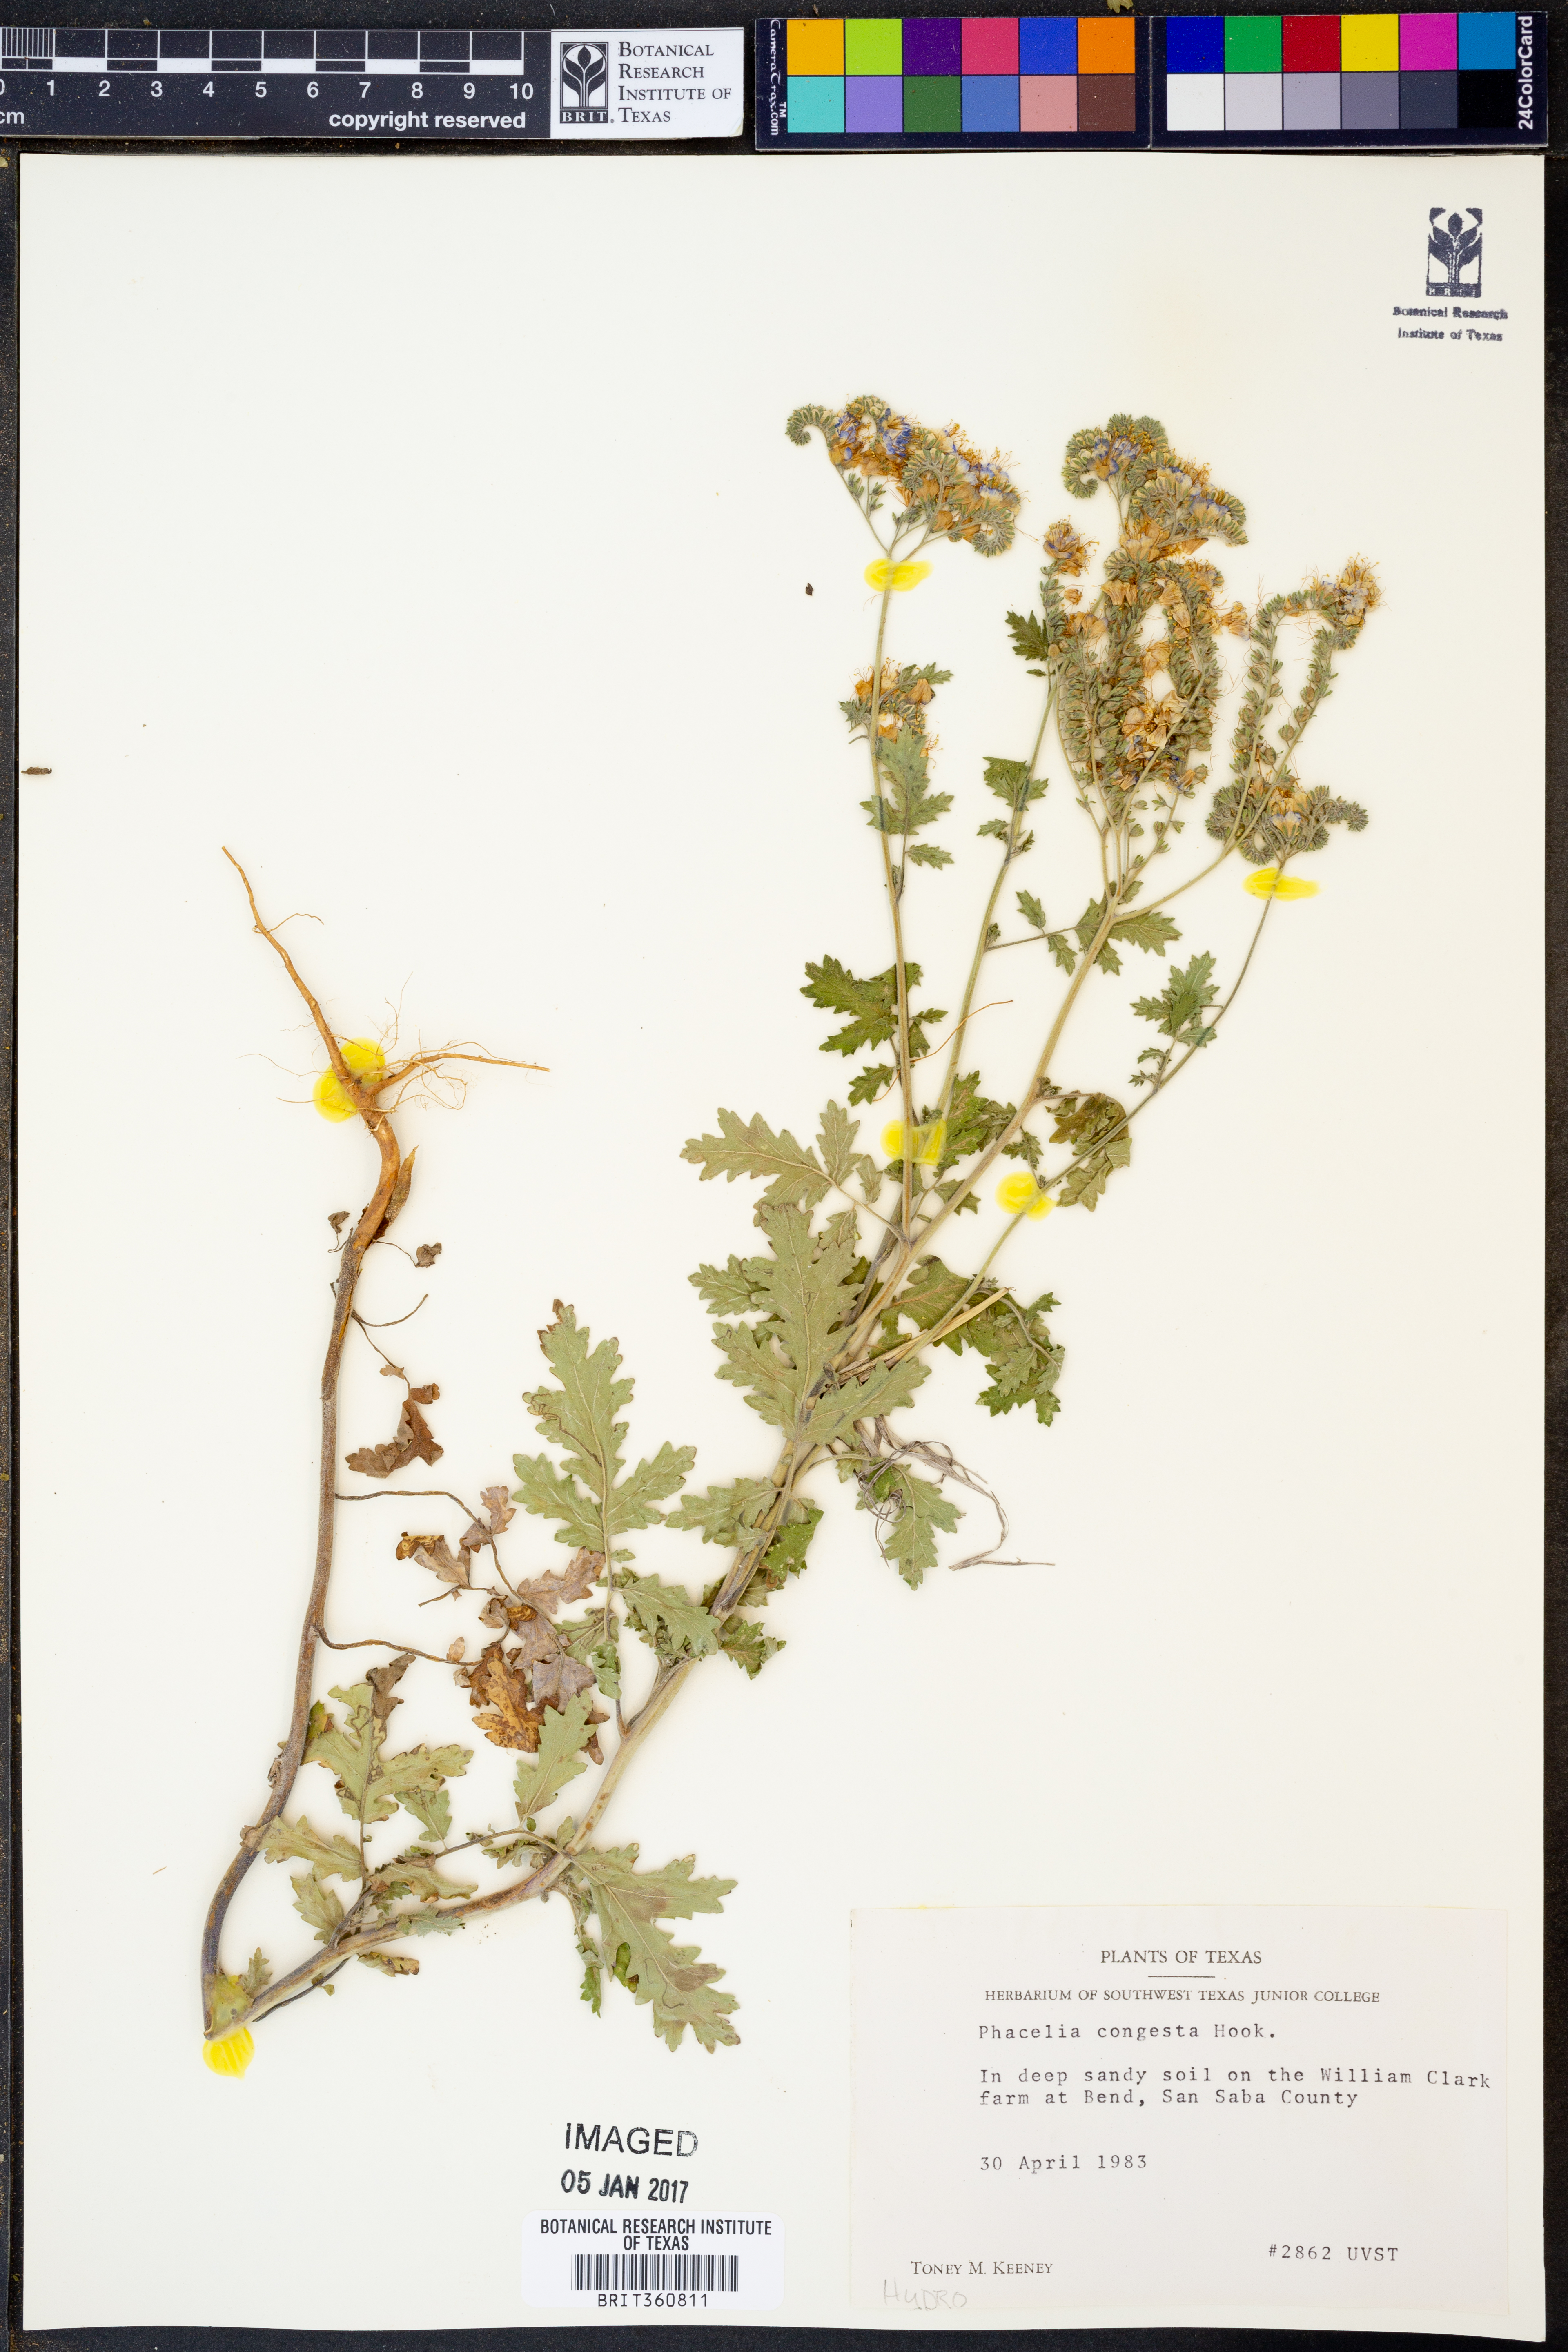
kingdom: Plantae
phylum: Tracheophyta
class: Magnoliopsida
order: Boraginales
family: Hydrophyllaceae
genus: Phacelia
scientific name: Phacelia congesta
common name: Blue curls
